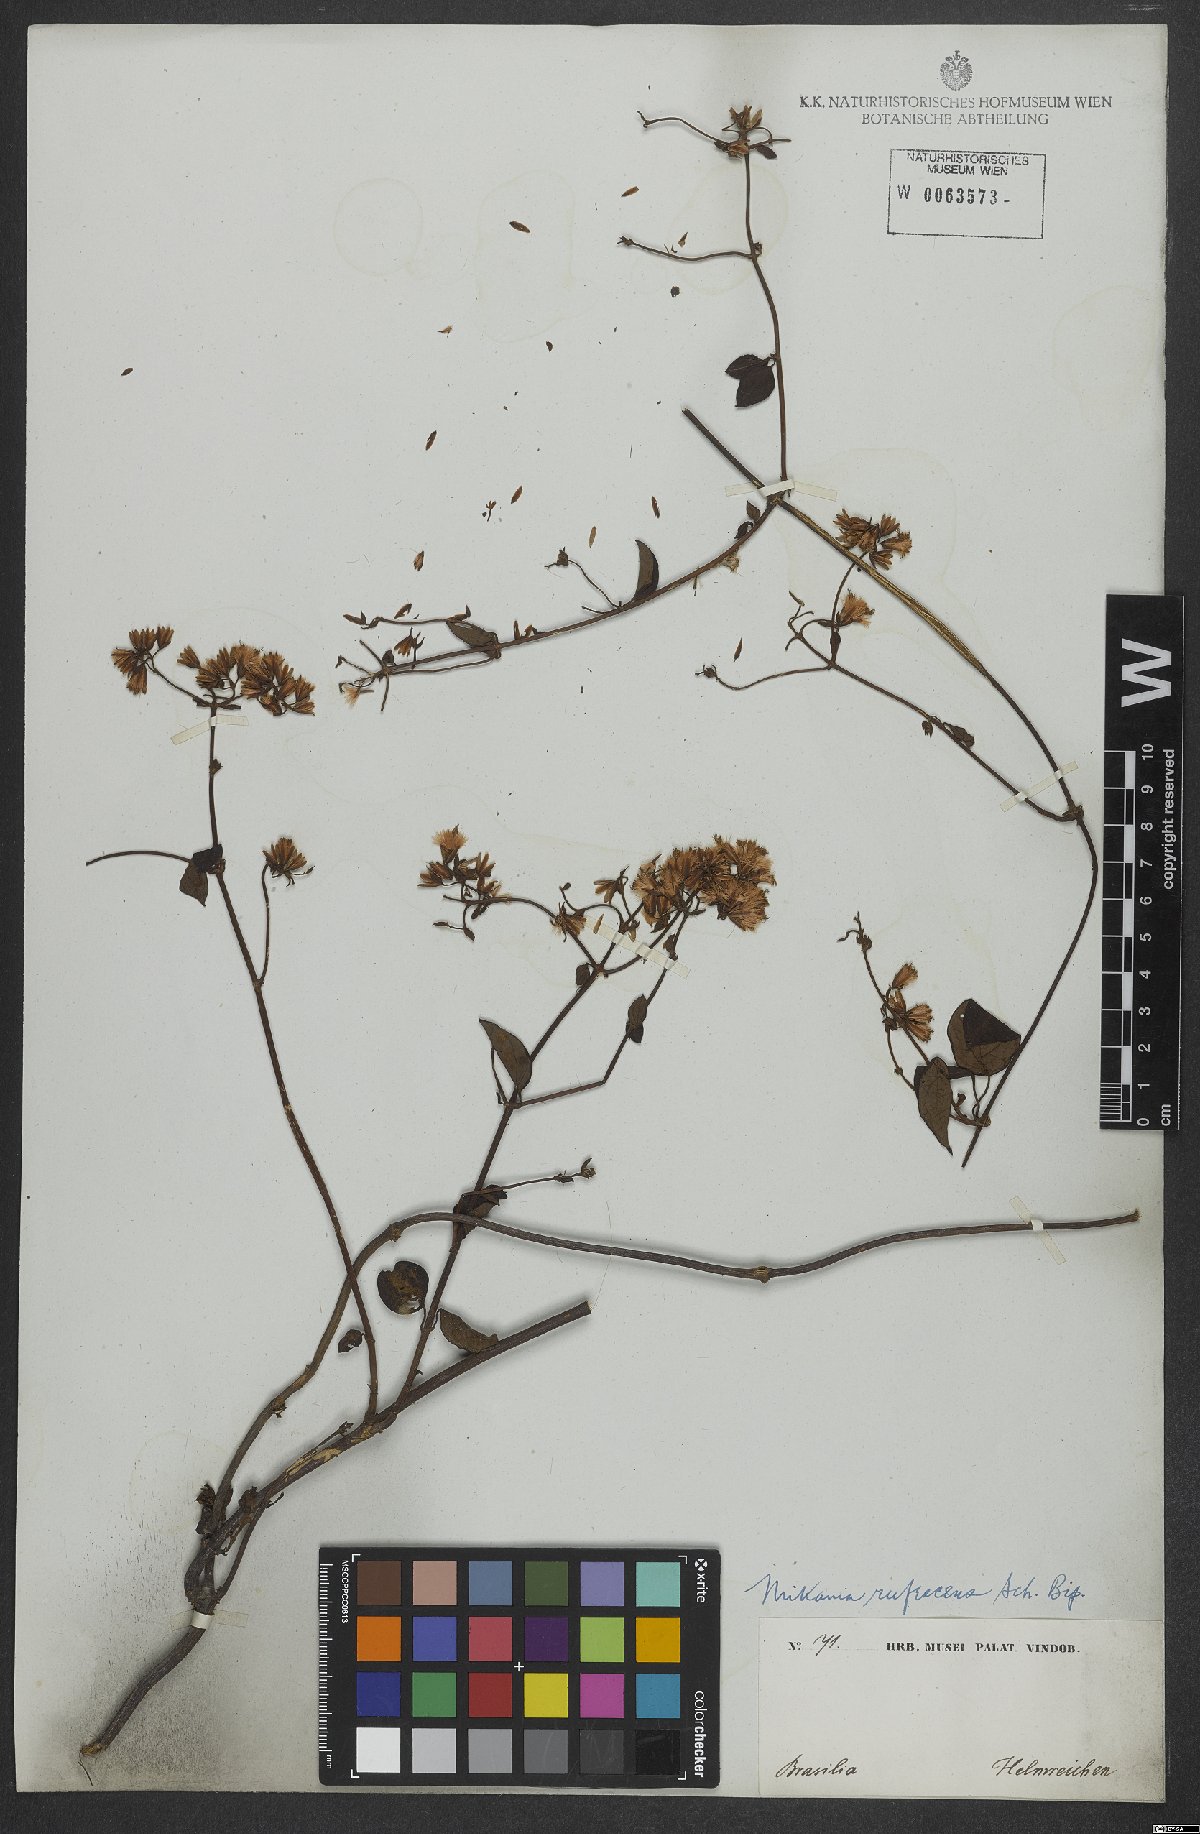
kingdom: Plantae
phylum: Tracheophyta
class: Magnoliopsida
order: Asterales
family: Asteraceae
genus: Mikania
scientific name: Mikania rufescens
